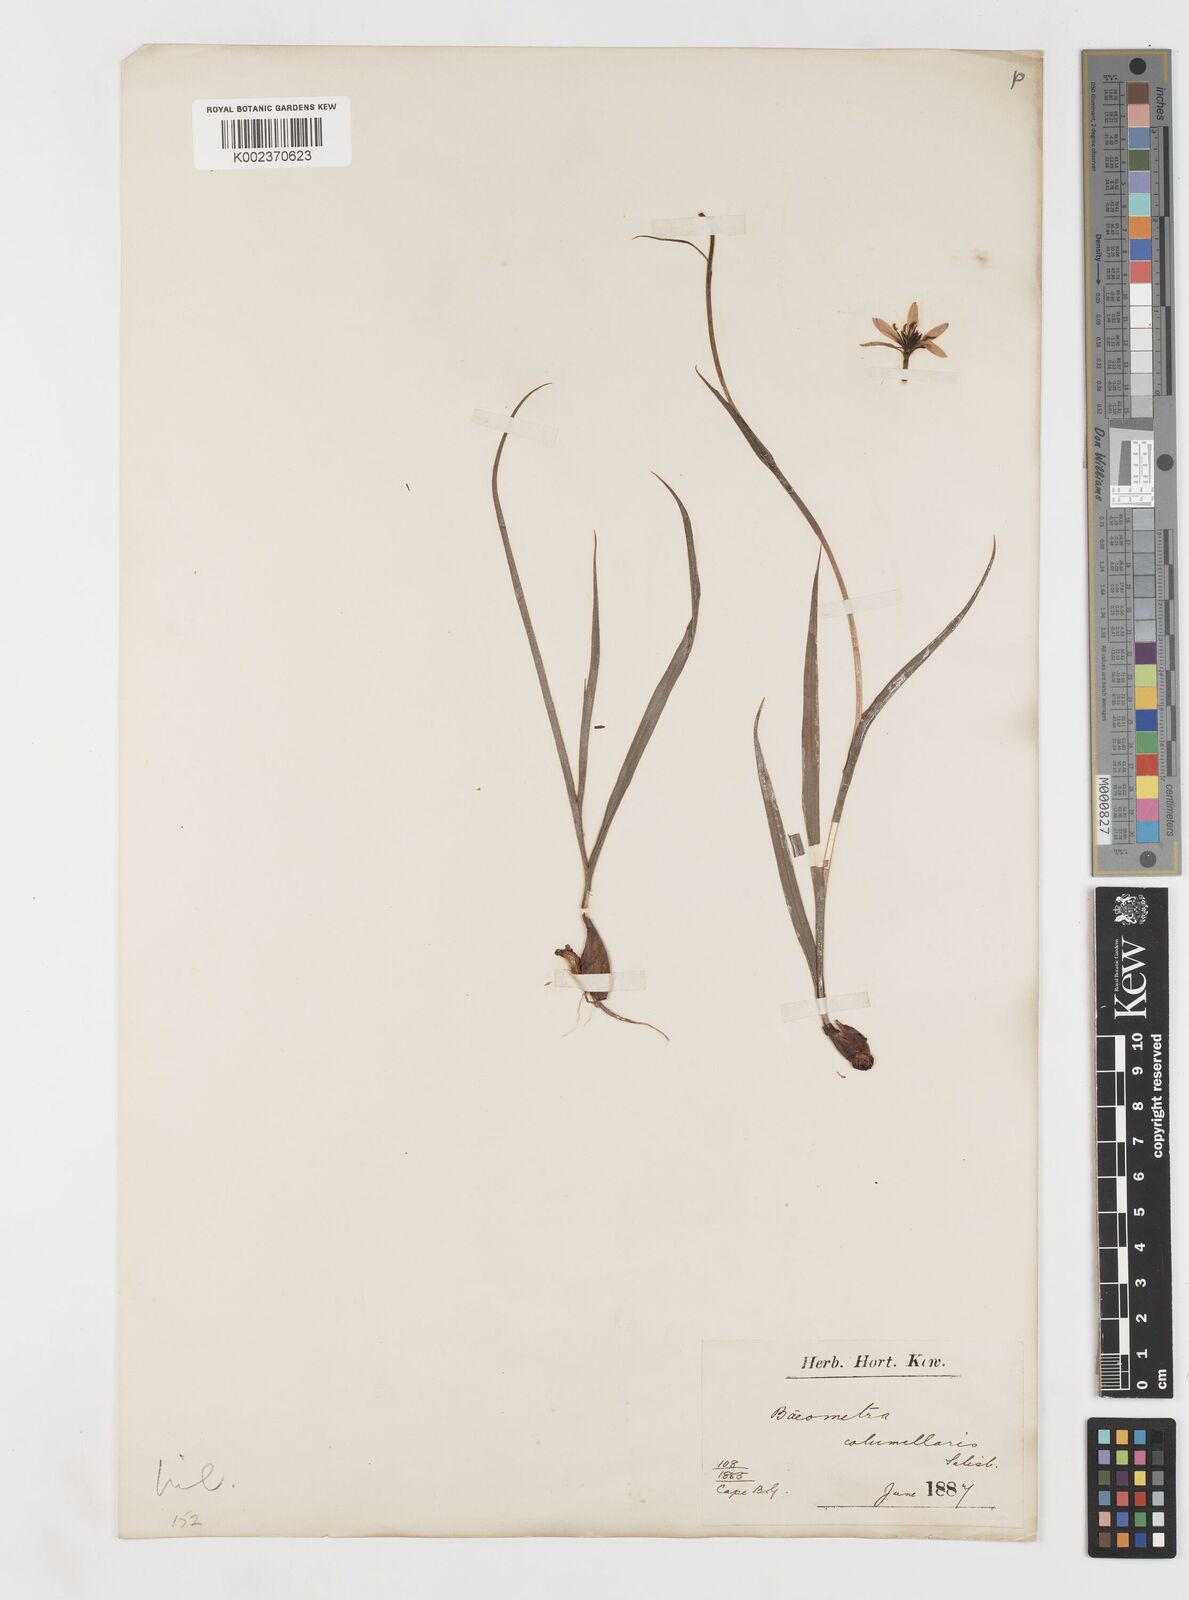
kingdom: Plantae
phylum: Tracheophyta
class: Liliopsida
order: Liliales
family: Colchicaceae
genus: Baeometra
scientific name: Baeometra uniflora
